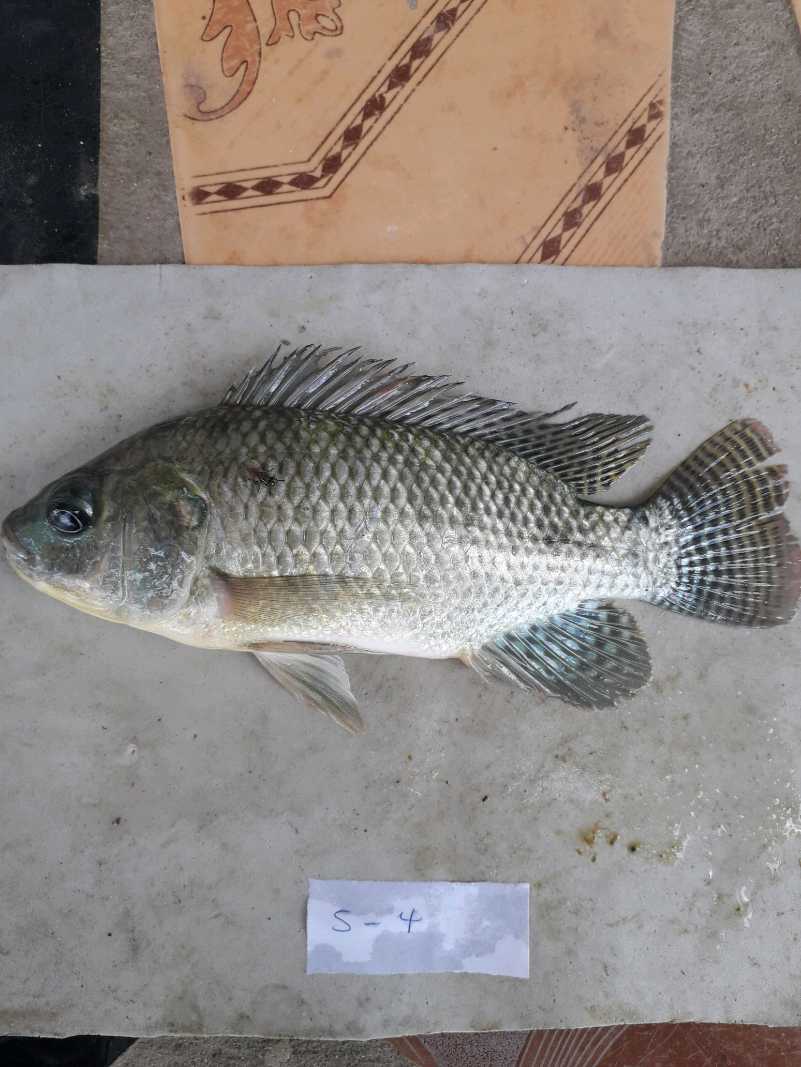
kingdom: Animalia
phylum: Chordata
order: Perciformes
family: Cichlidae
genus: Oreochromis
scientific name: Oreochromis niloticus
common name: Nile tilapia
